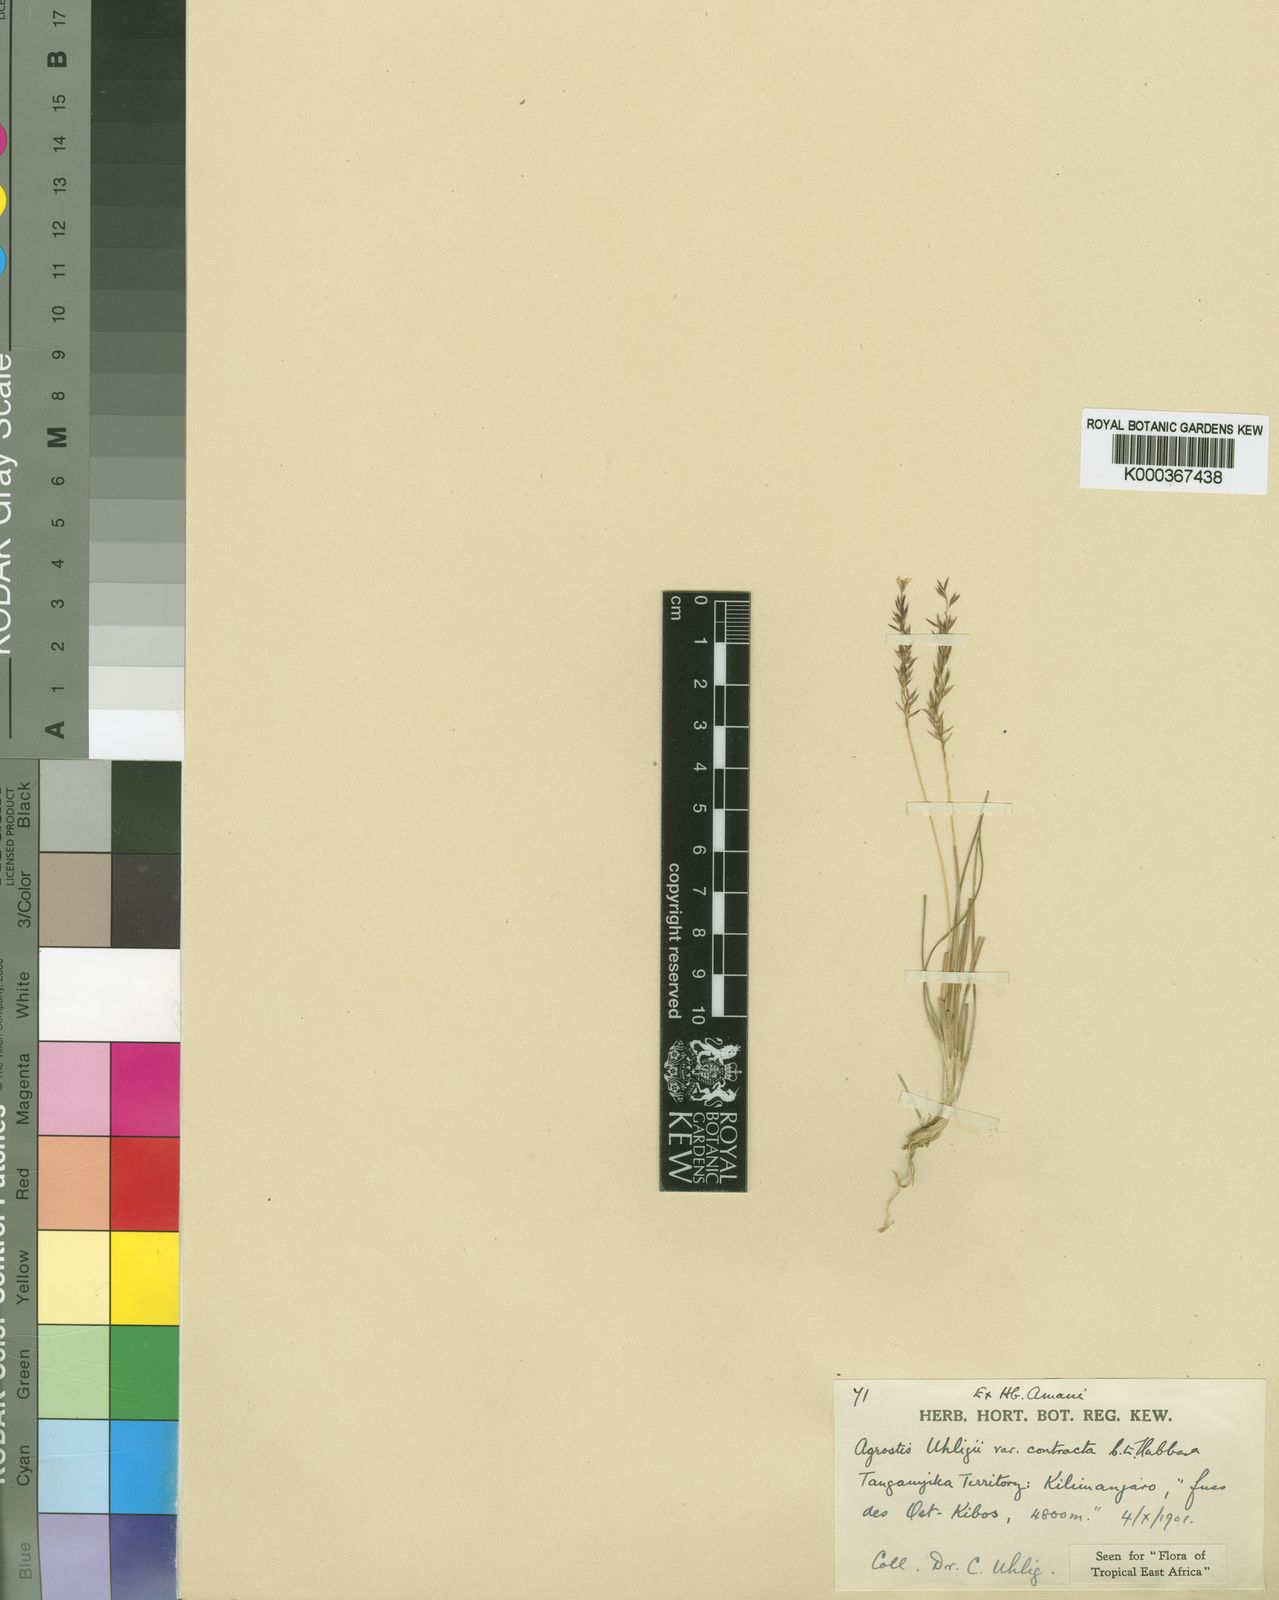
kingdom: Plantae
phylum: Tracheophyta
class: Liliopsida
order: Poales
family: Poaceae
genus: Agrostis
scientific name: Agrostis volkensii
